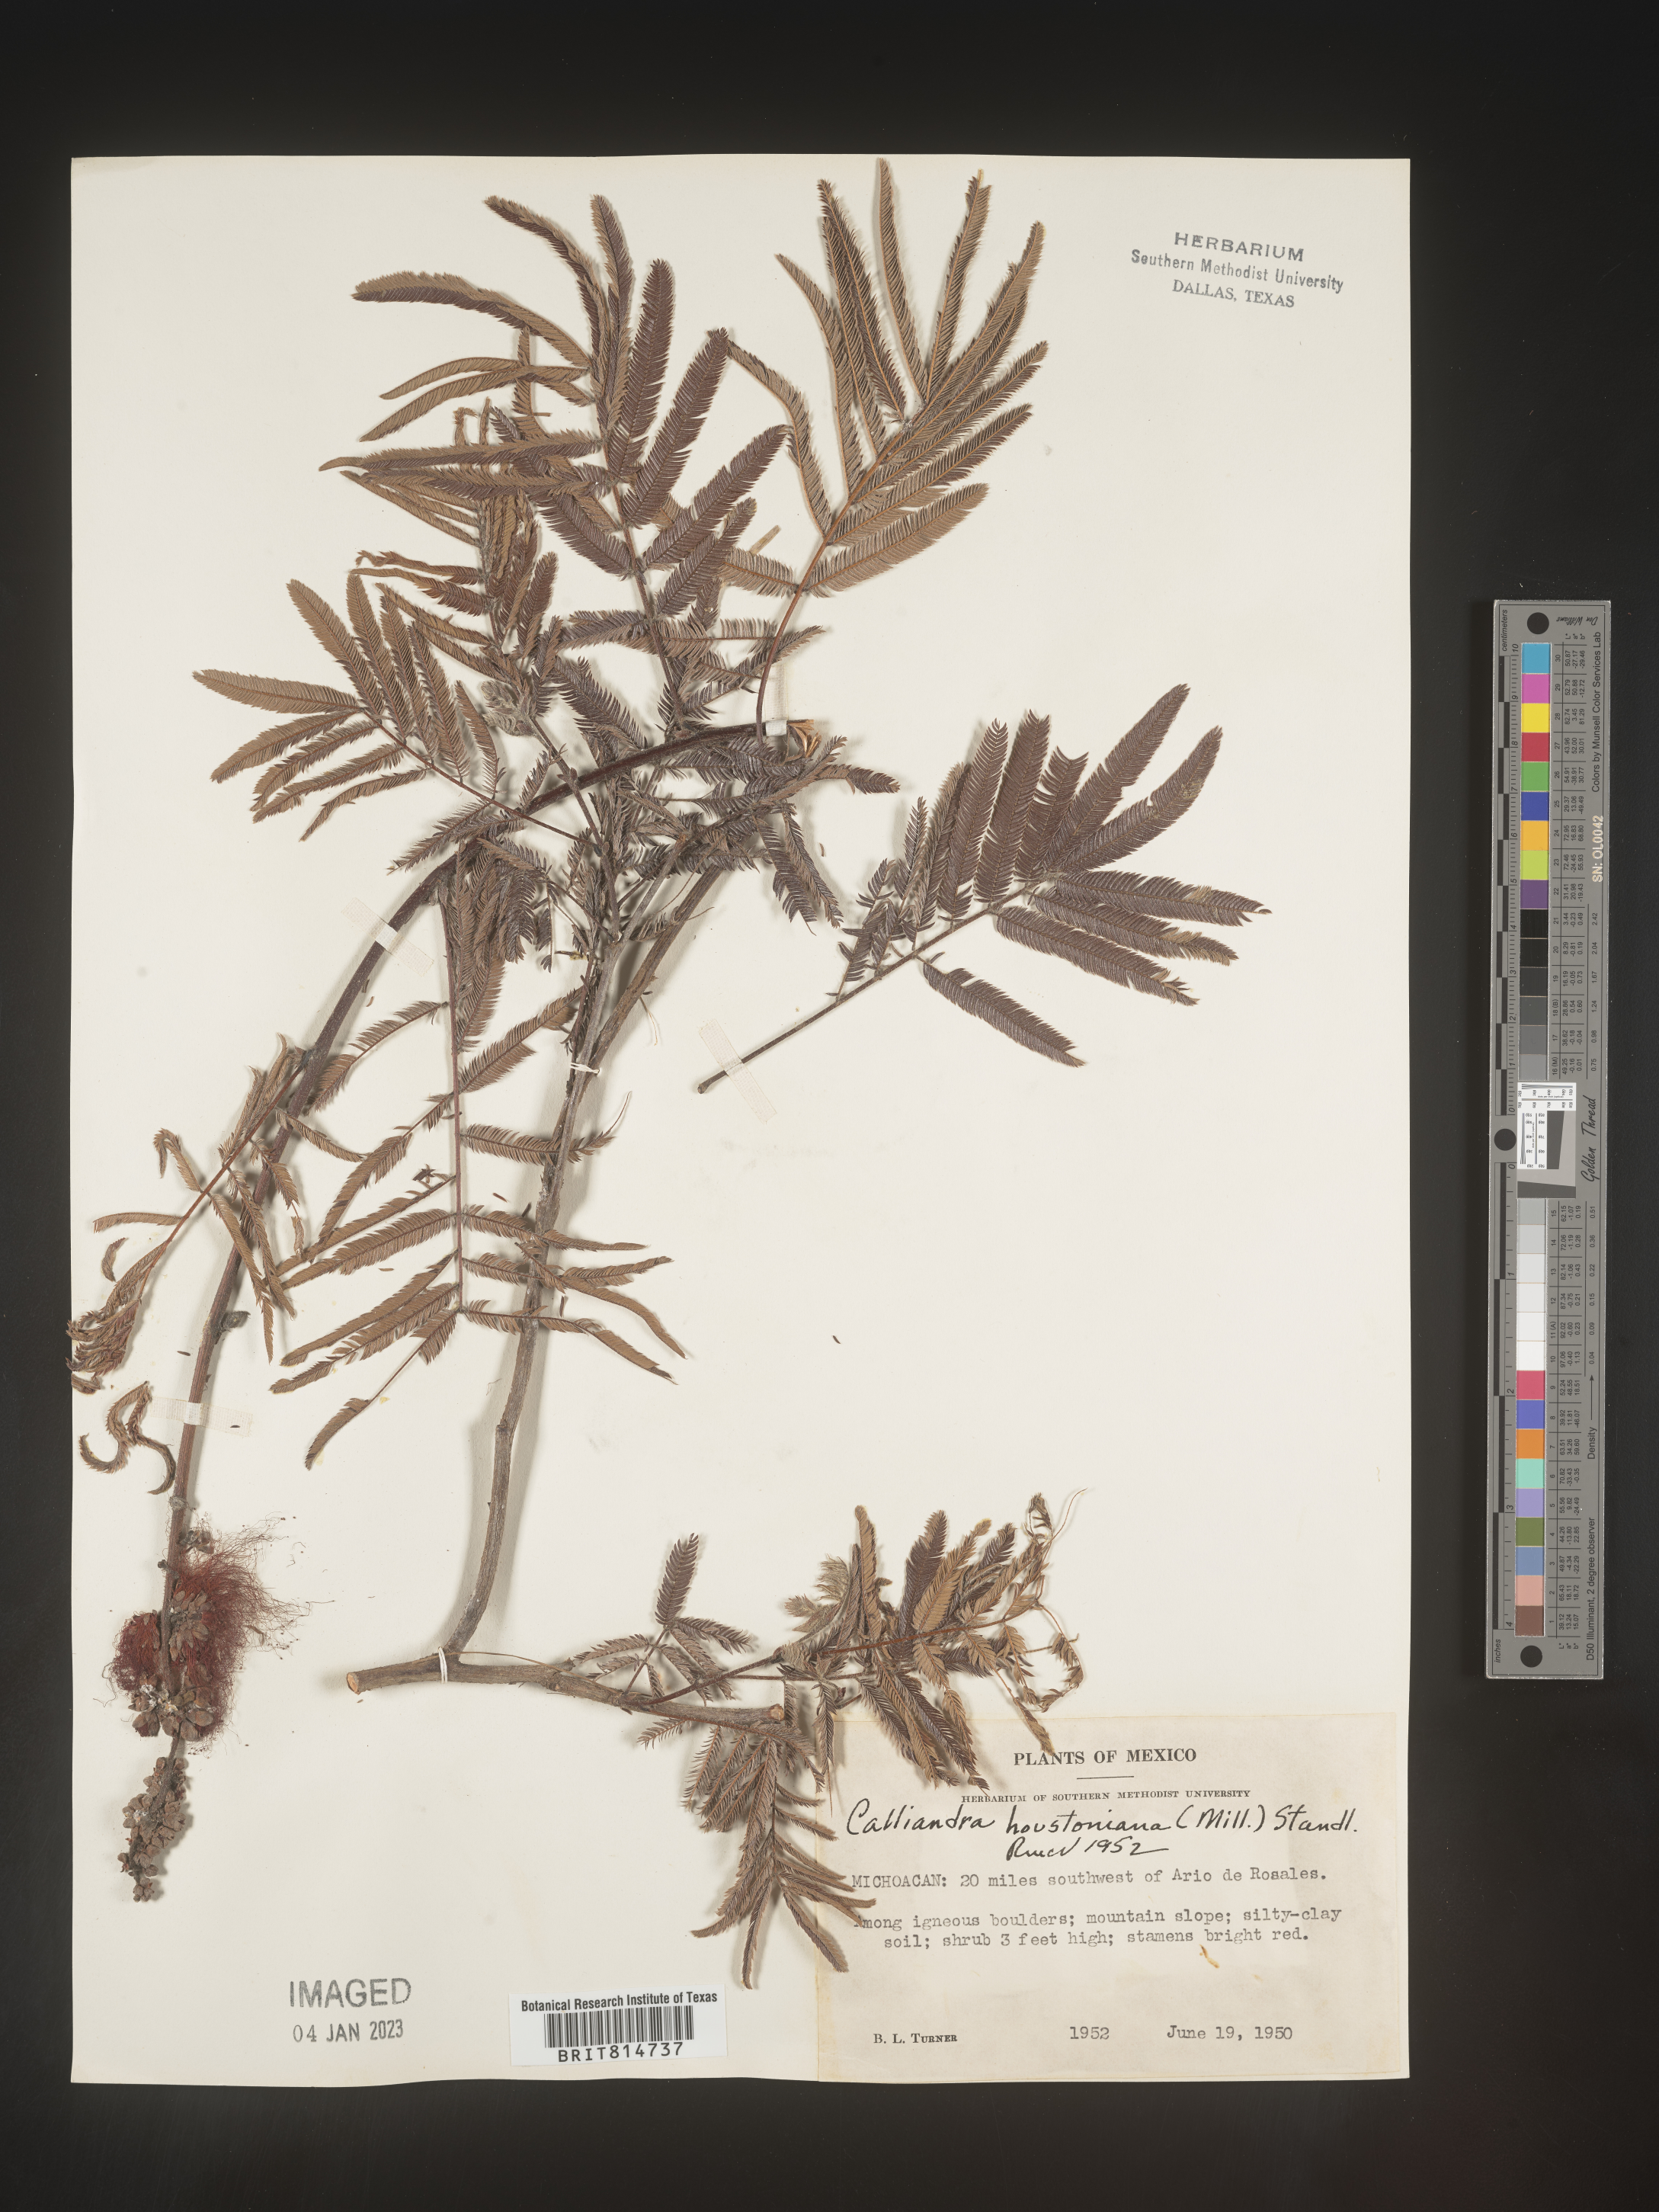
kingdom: Plantae
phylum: Tracheophyta
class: Magnoliopsida
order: Fabales
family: Fabaceae
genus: Calliandra
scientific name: Calliandra
